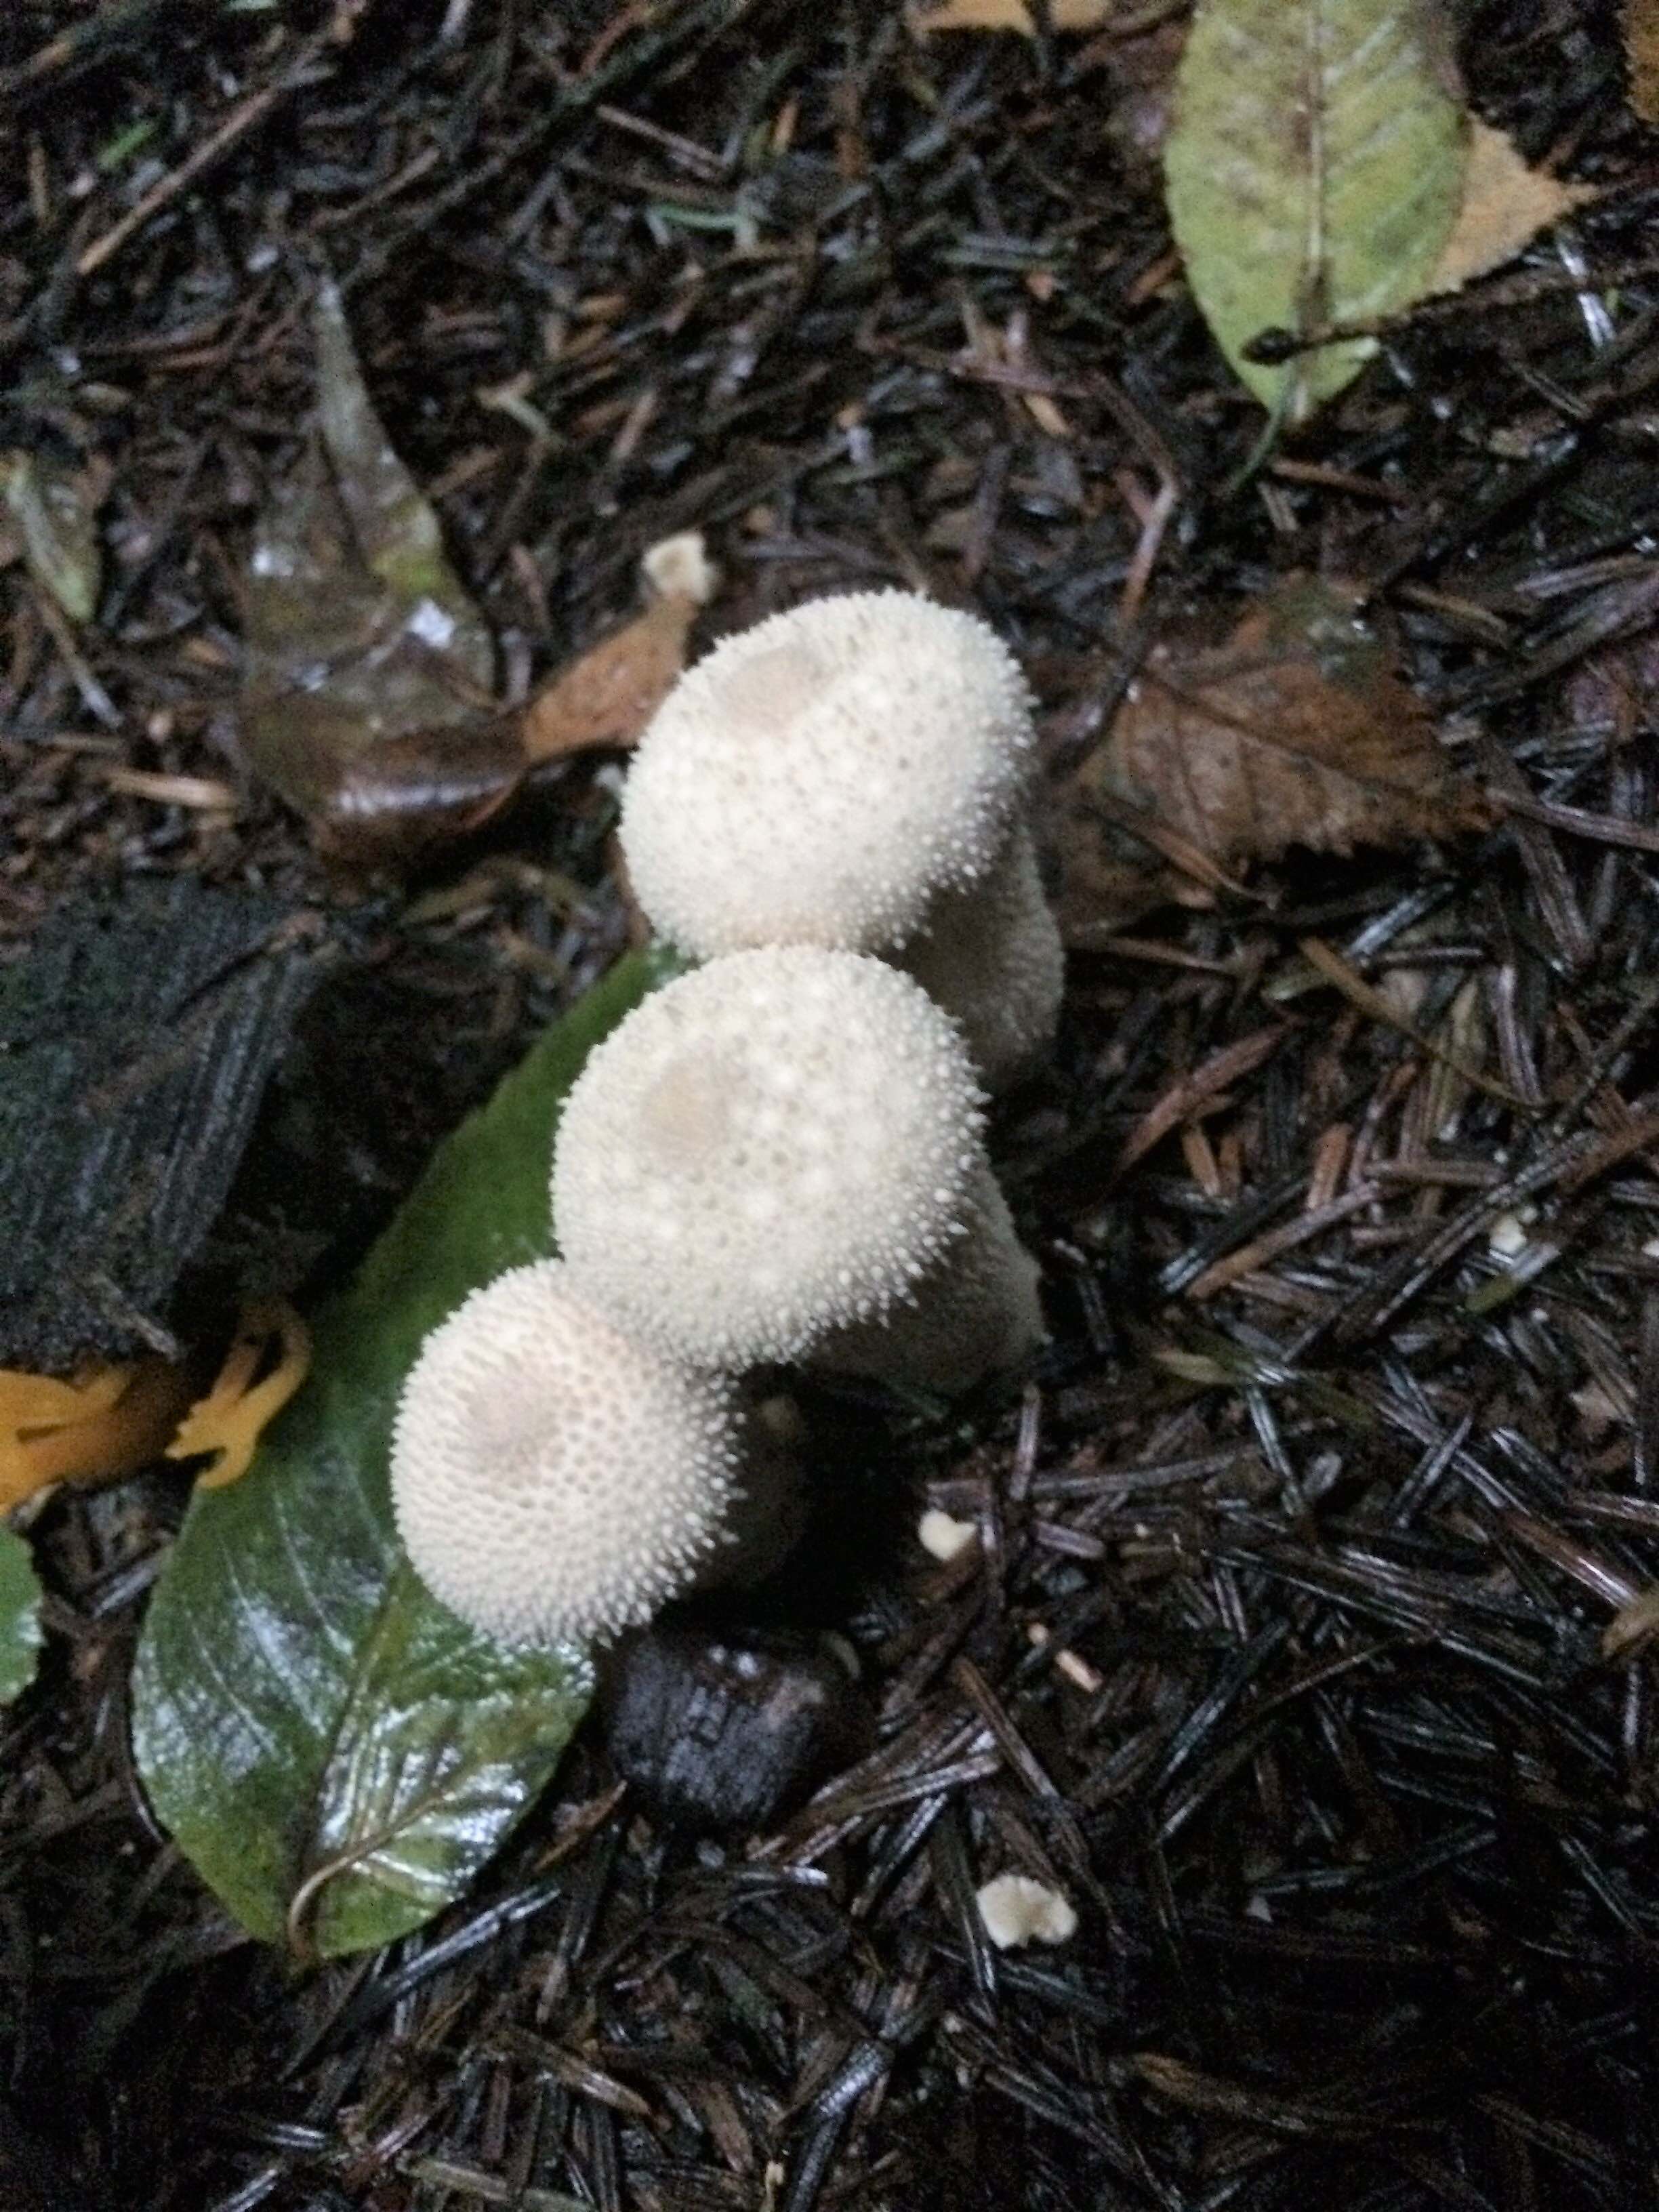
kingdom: Fungi
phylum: Basidiomycota
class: Agaricomycetes
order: Agaricales
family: Lycoperdaceae
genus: Lycoperdon
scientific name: Lycoperdon perlatum
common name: krystal-støvbold
